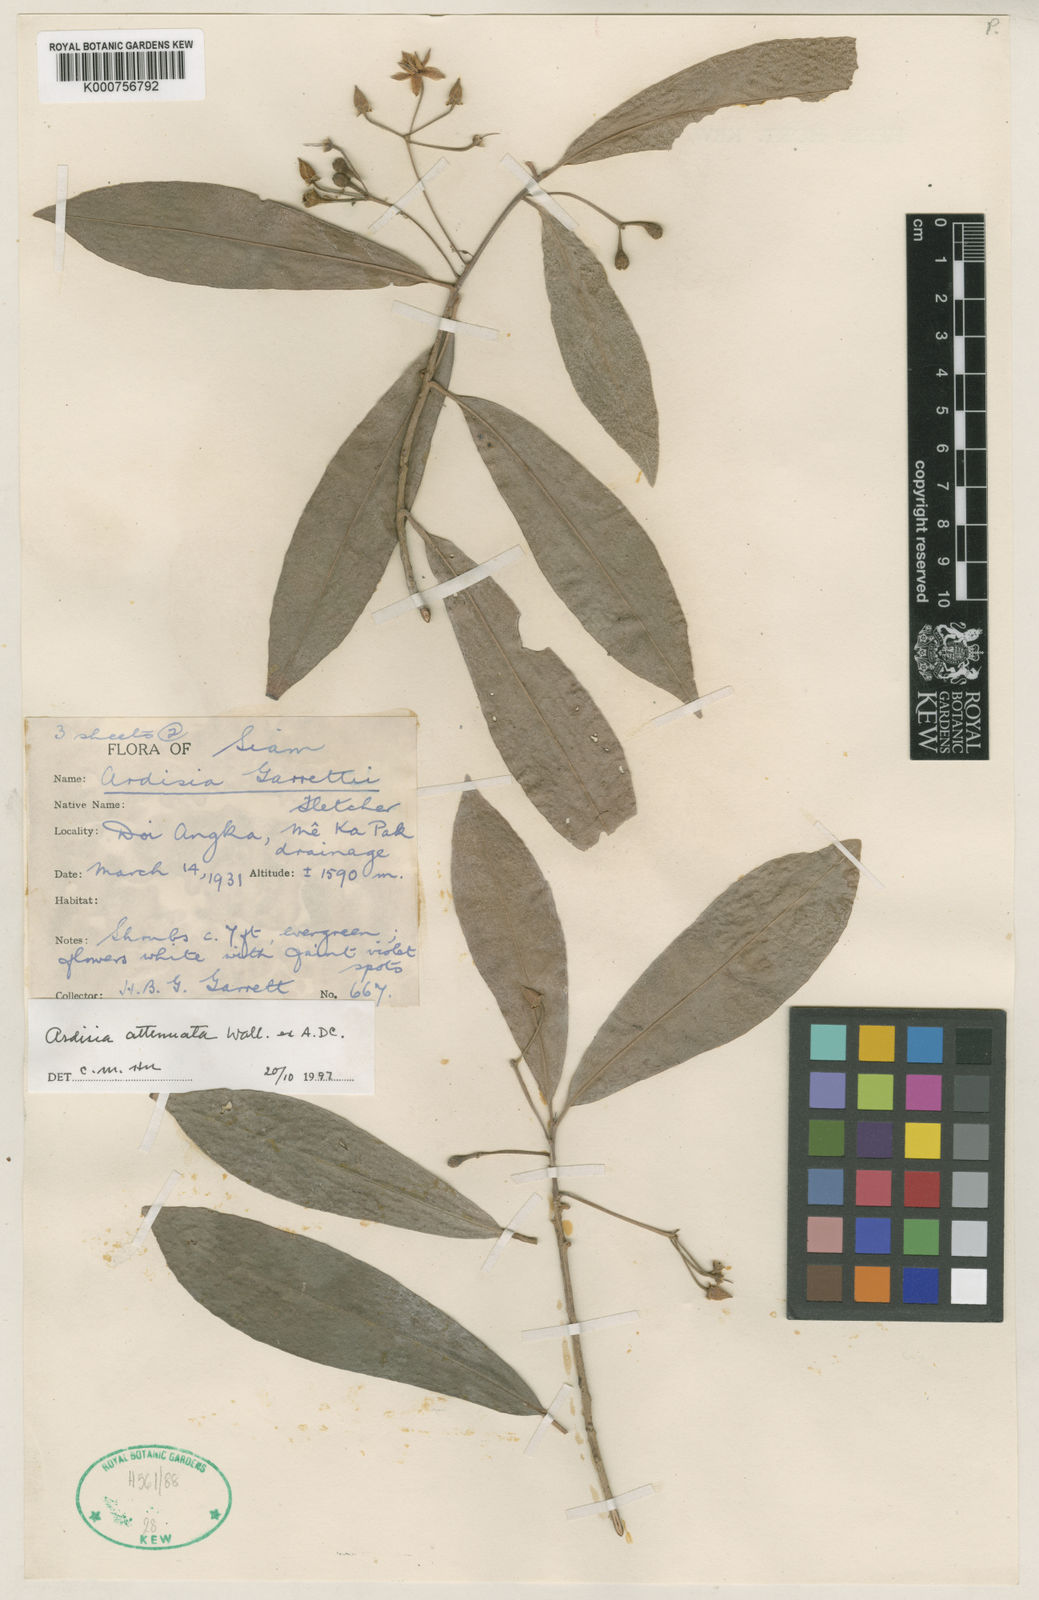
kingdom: Plantae
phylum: Tracheophyta
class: Magnoliopsida
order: Ericales
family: Primulaceae
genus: Ardisia
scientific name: Ardisia attenuata
